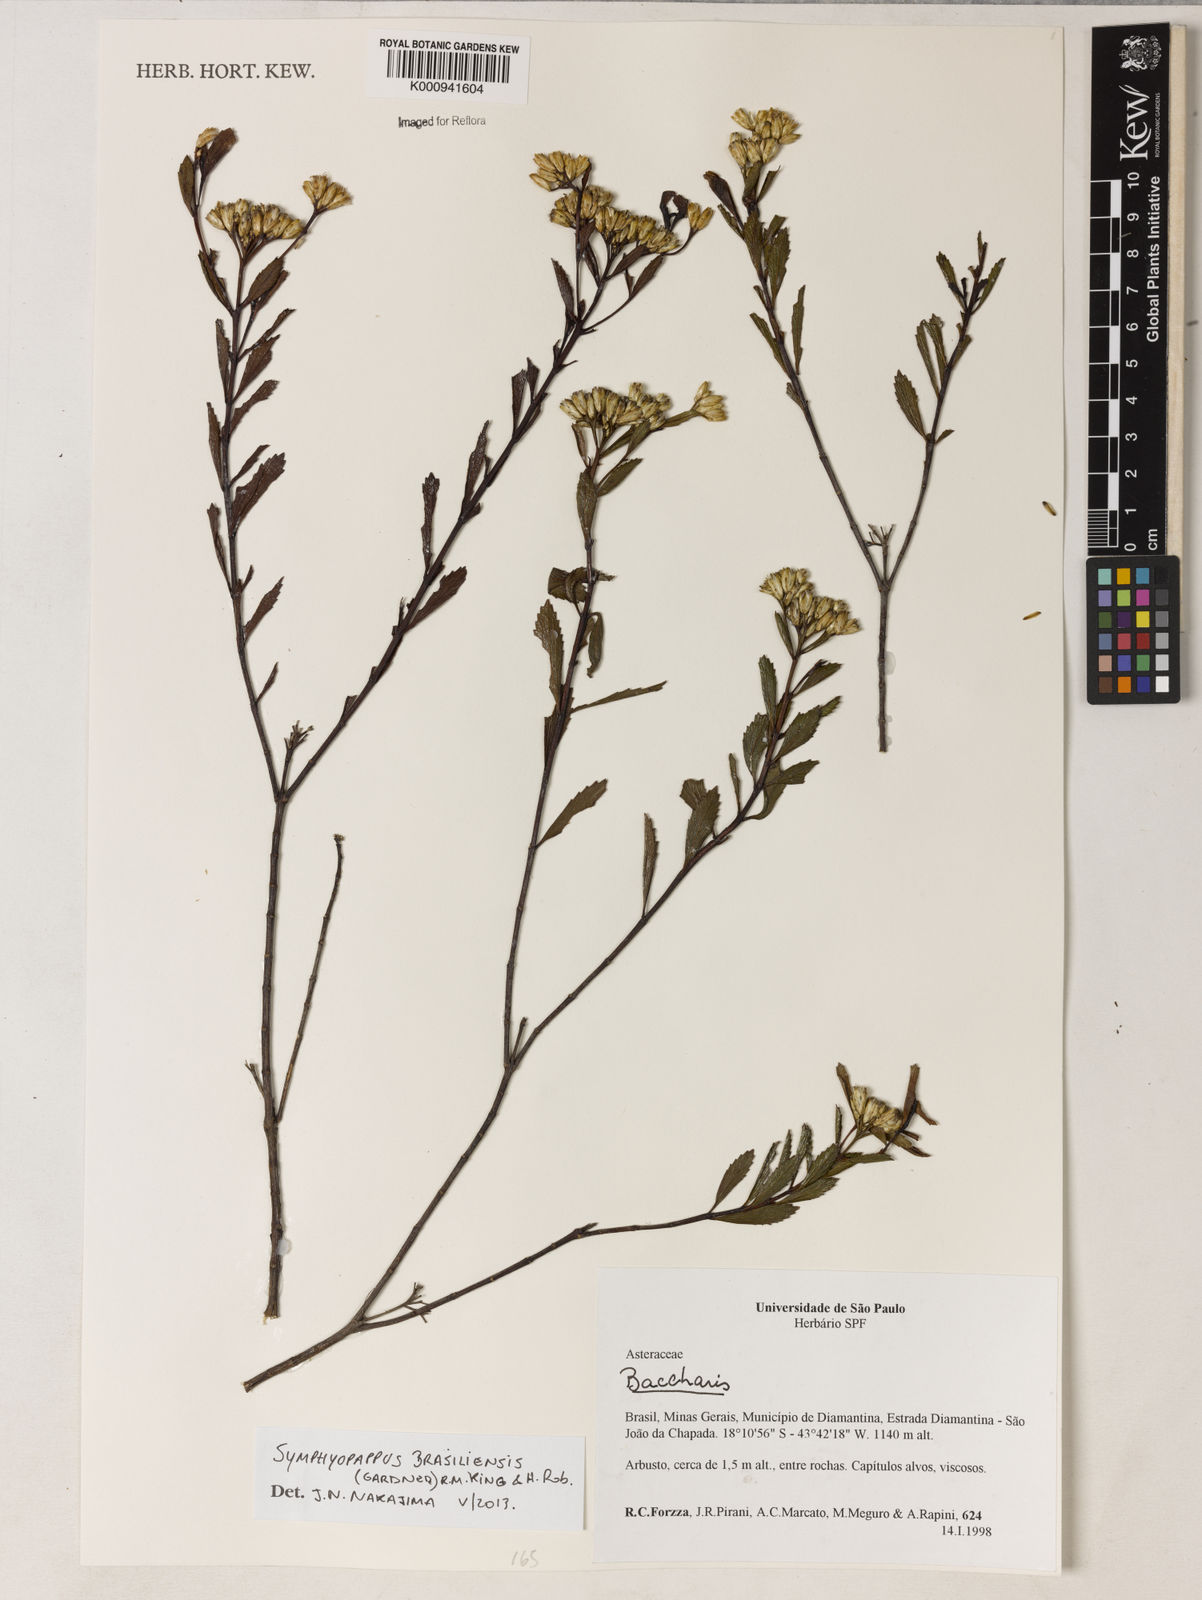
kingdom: Plantae
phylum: Tracheophyta
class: Magnoliopsida
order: Asterales
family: Asteraceae
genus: Symphyopappus
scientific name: Symphyopappus brasiliensis
